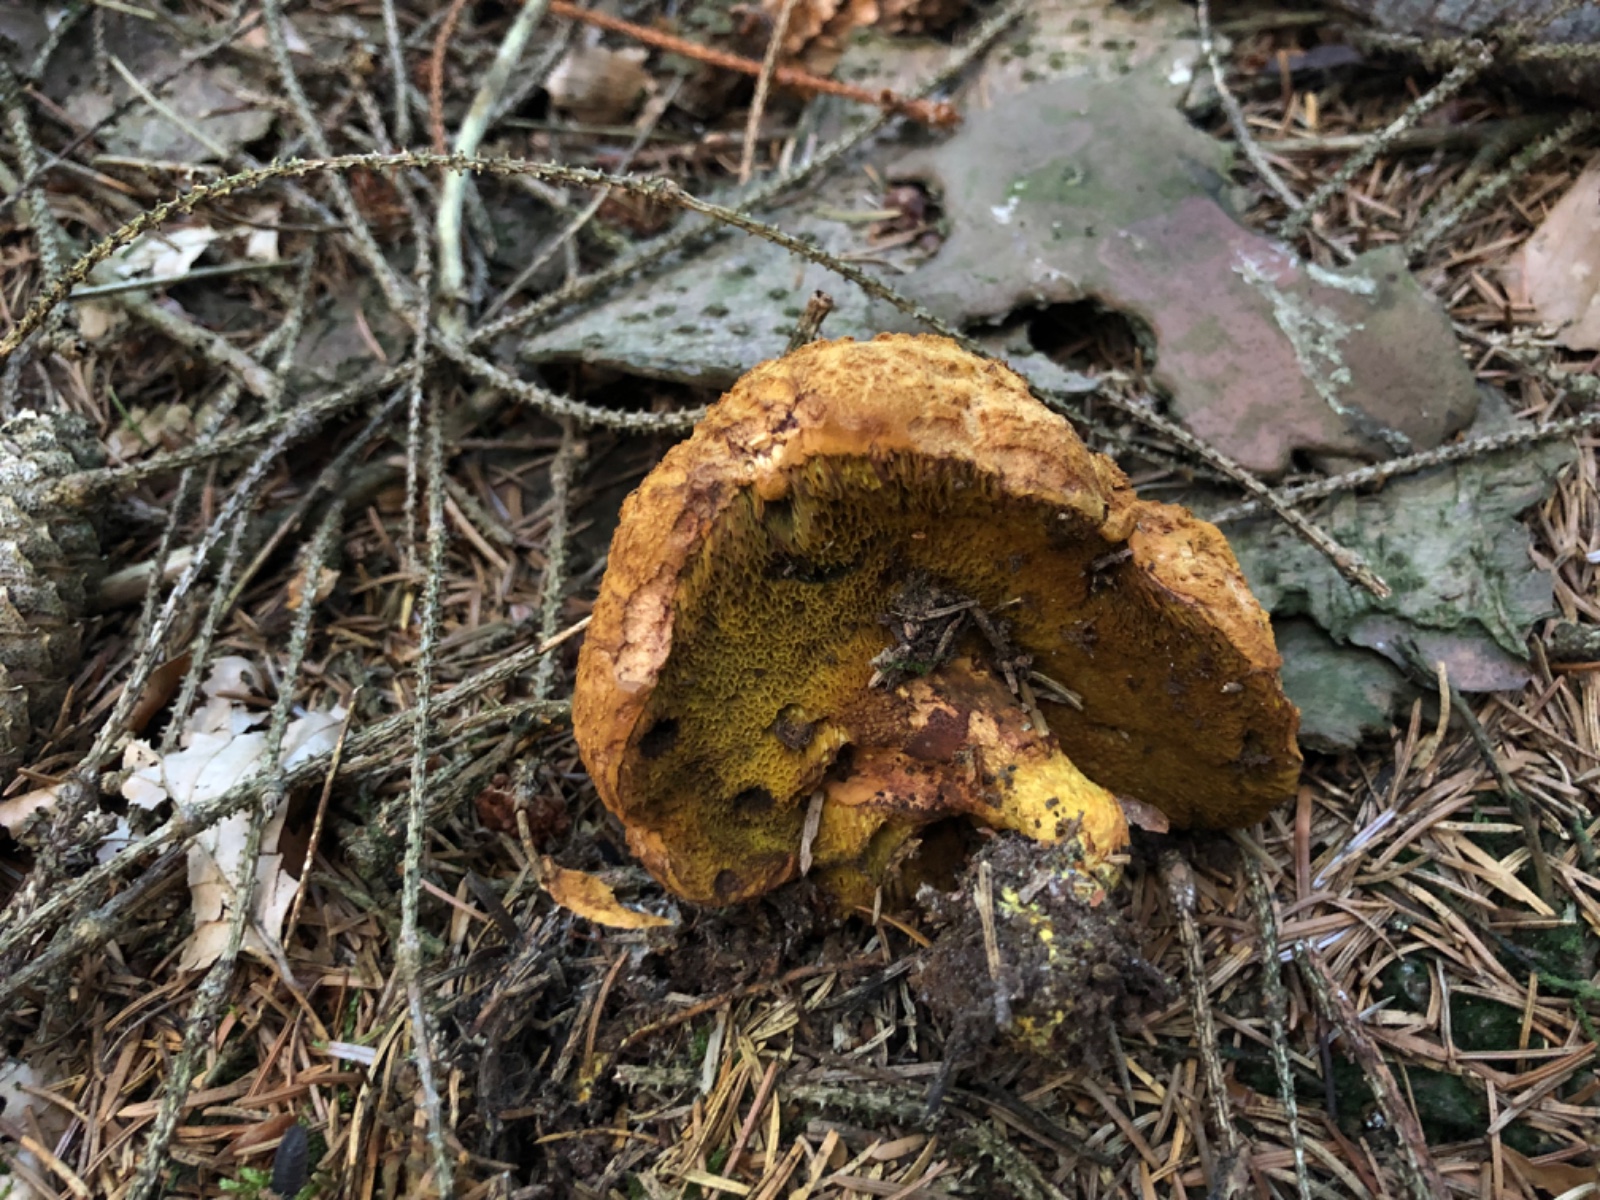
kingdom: Fungi
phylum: Basidiomycota
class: Agaricomycetes
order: Boletales
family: Boletaceae
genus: Buchwaldoboletus
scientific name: Buchwaldoboletus lignicola
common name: stødrørhat
